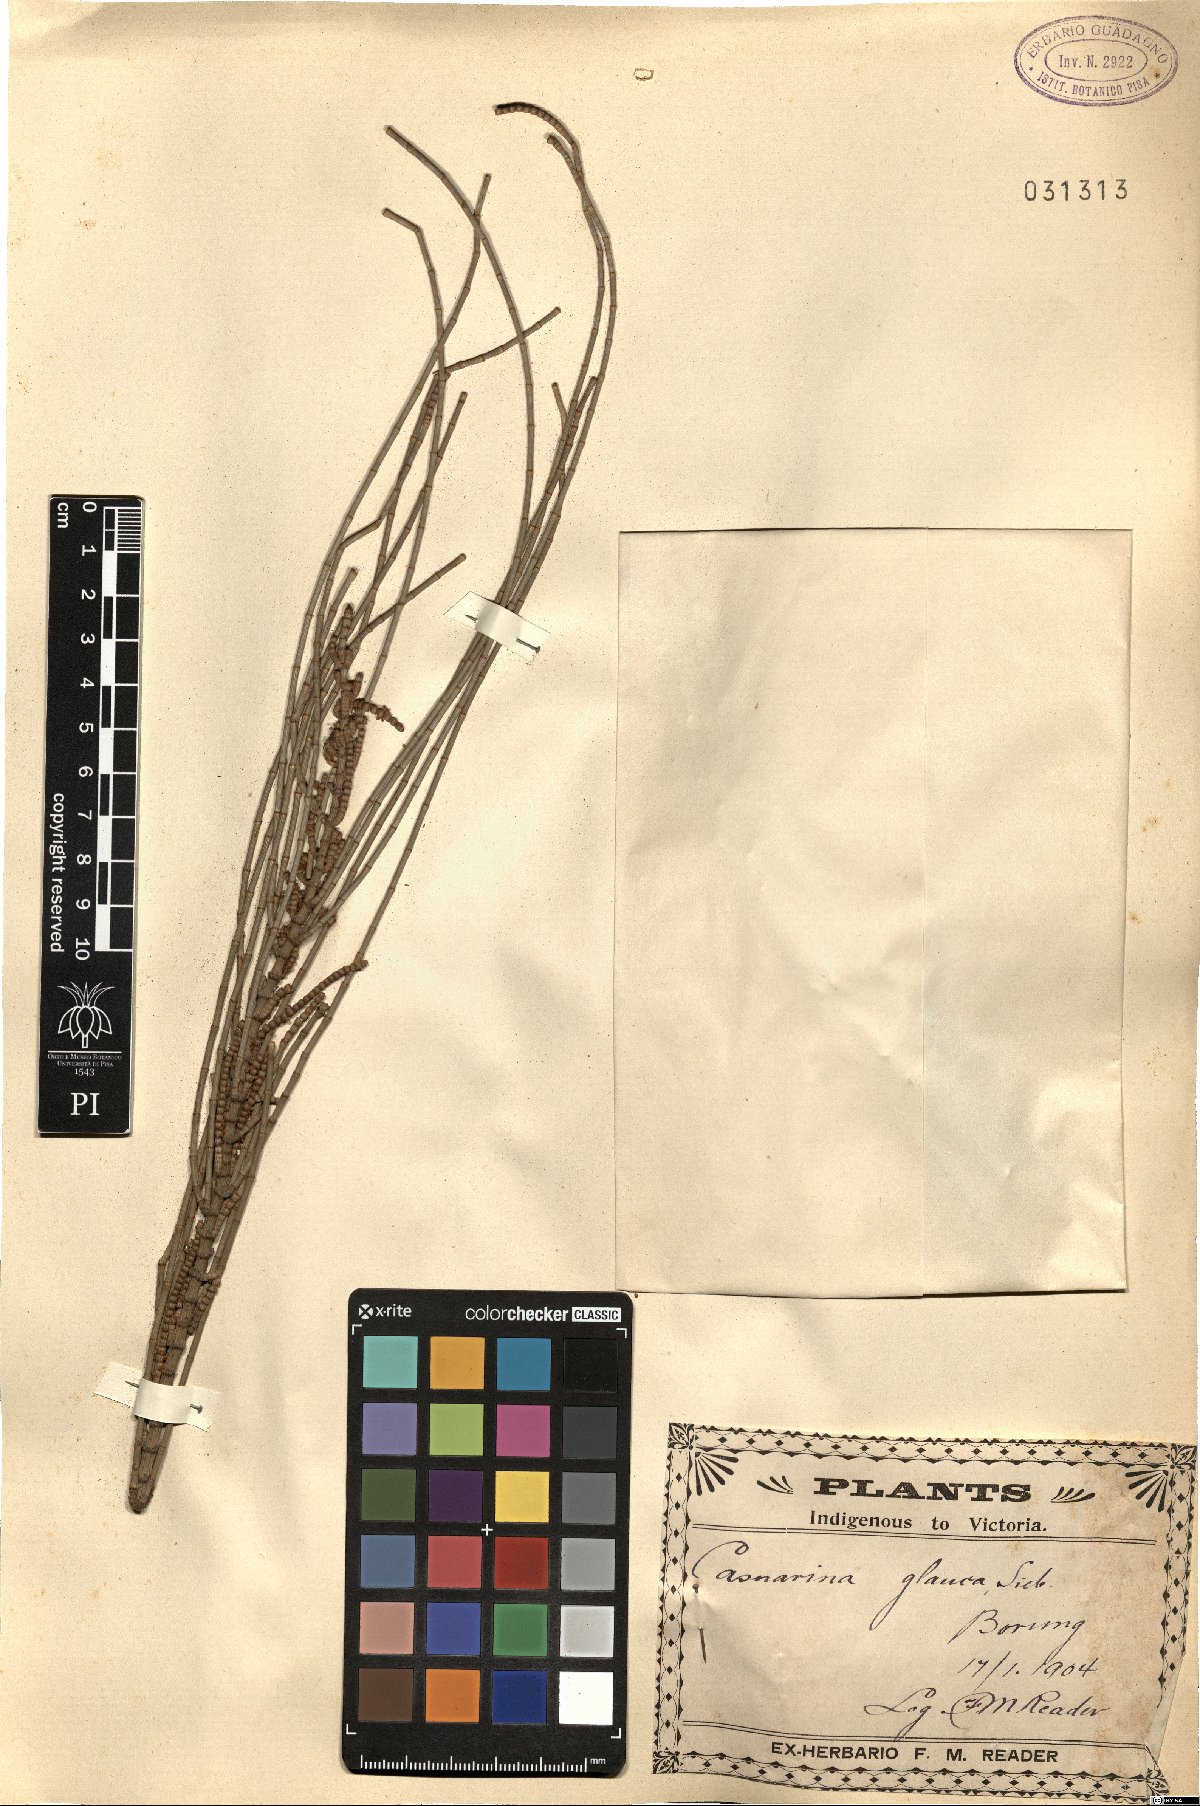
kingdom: Plantae
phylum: Tracheophyta
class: Magnoliopsida
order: Fagales
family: Casuarinaceae
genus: Casuarina
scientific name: Casuarina glauca
